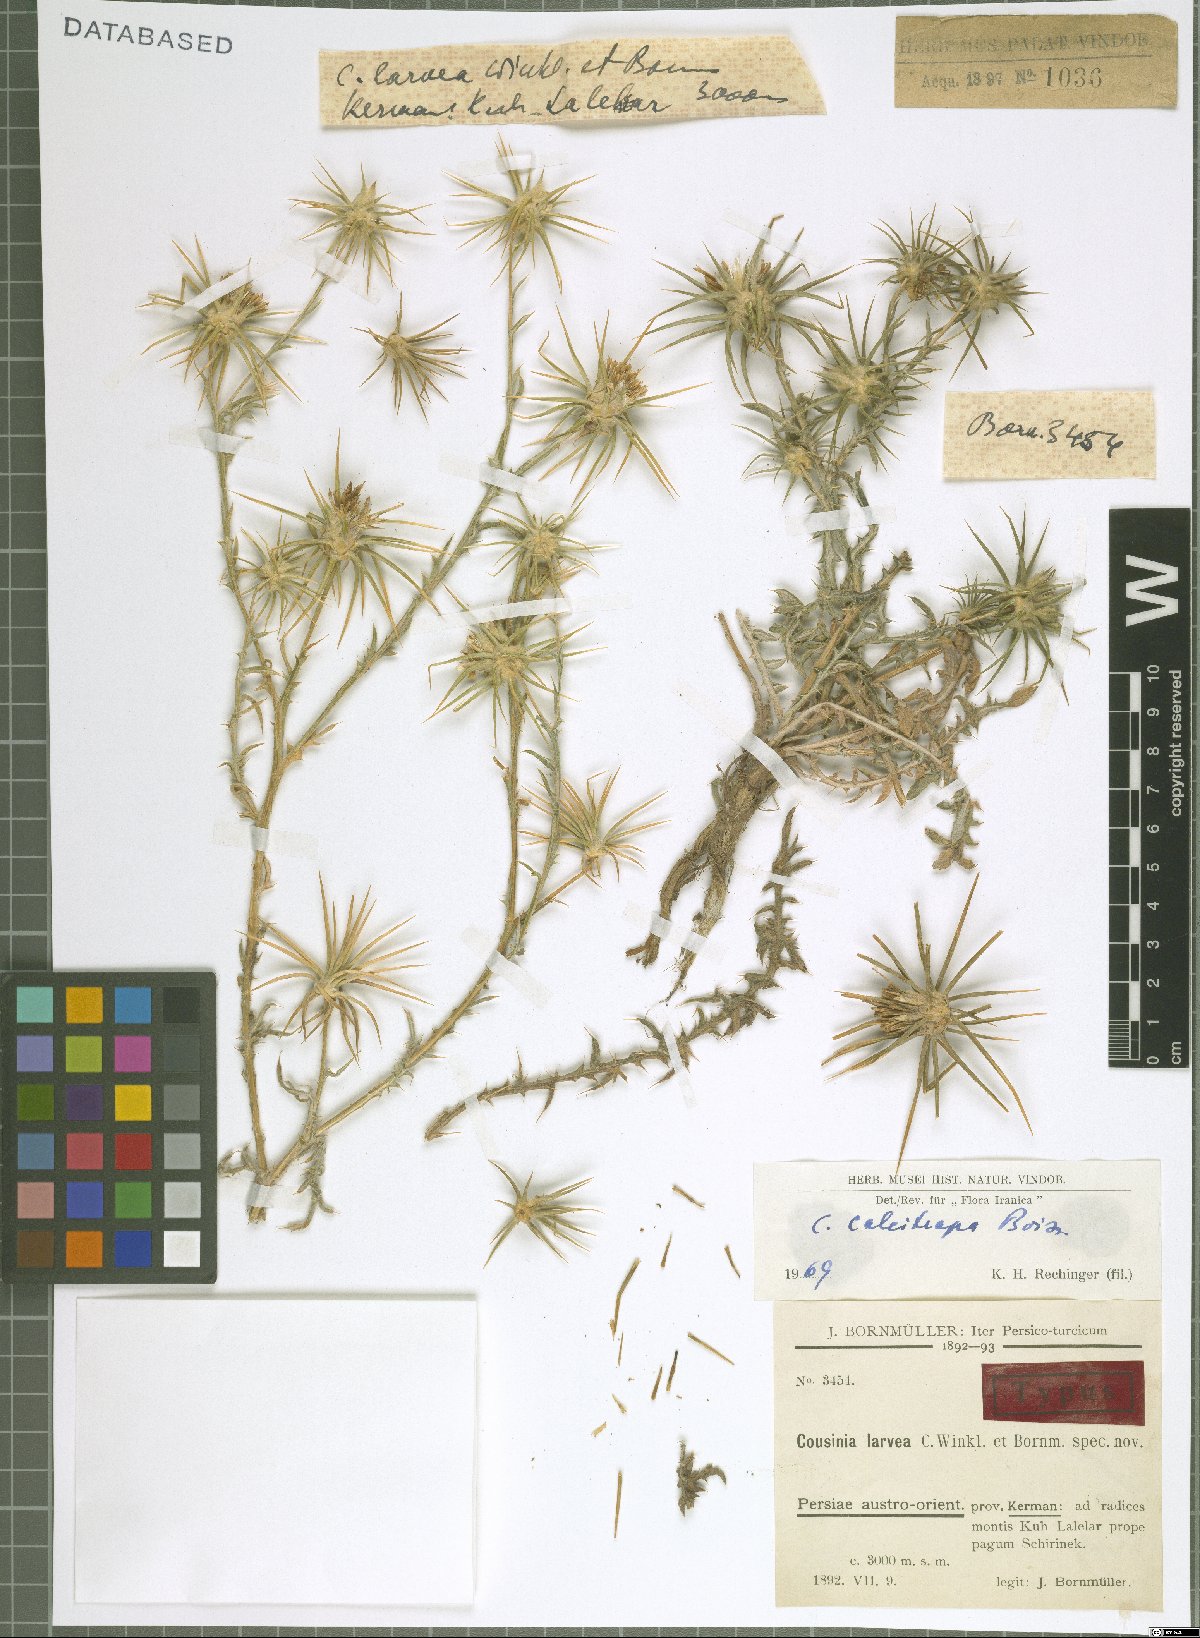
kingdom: Plantae
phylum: Tracheophyta
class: Magnoliopsida
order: Asterales
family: Asteraceae
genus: Cousinia
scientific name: Cousinia calcitrapa
